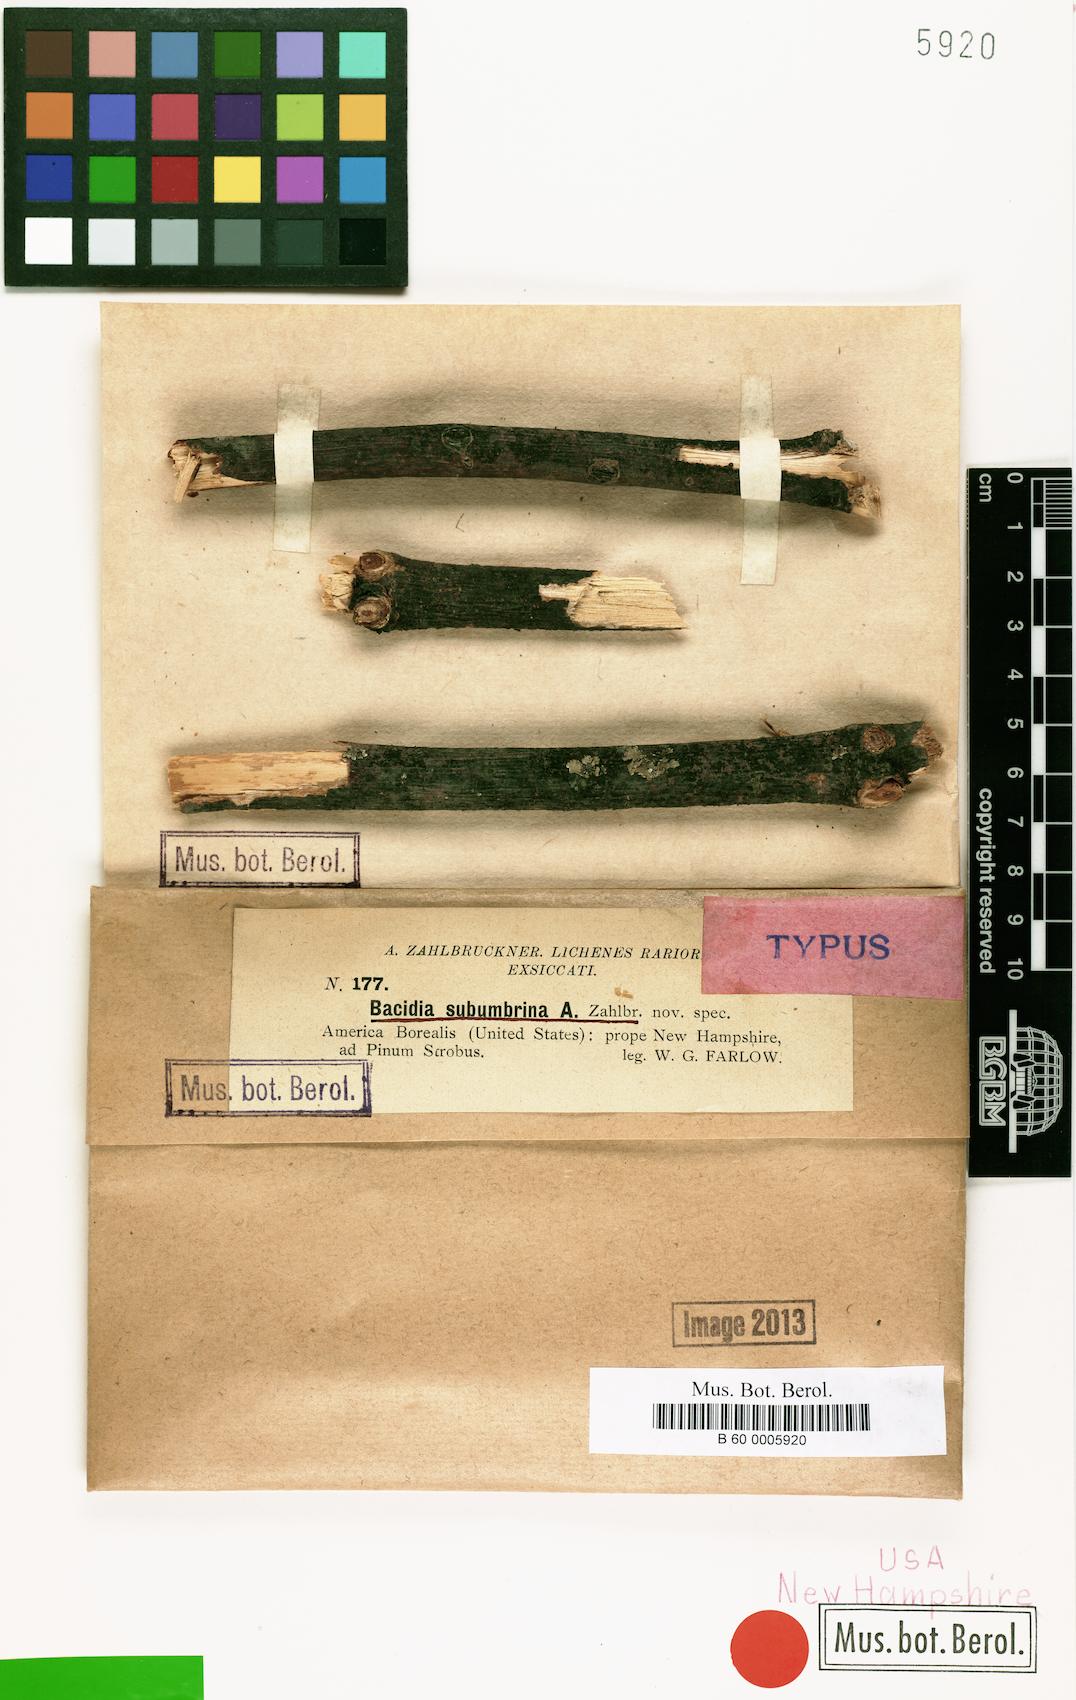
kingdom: Fungi
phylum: Ascomycota
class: Lecanoromycetes
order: Lecanorales
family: Ramalinaceae
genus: Bacidia
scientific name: Bacidia subumbrina
